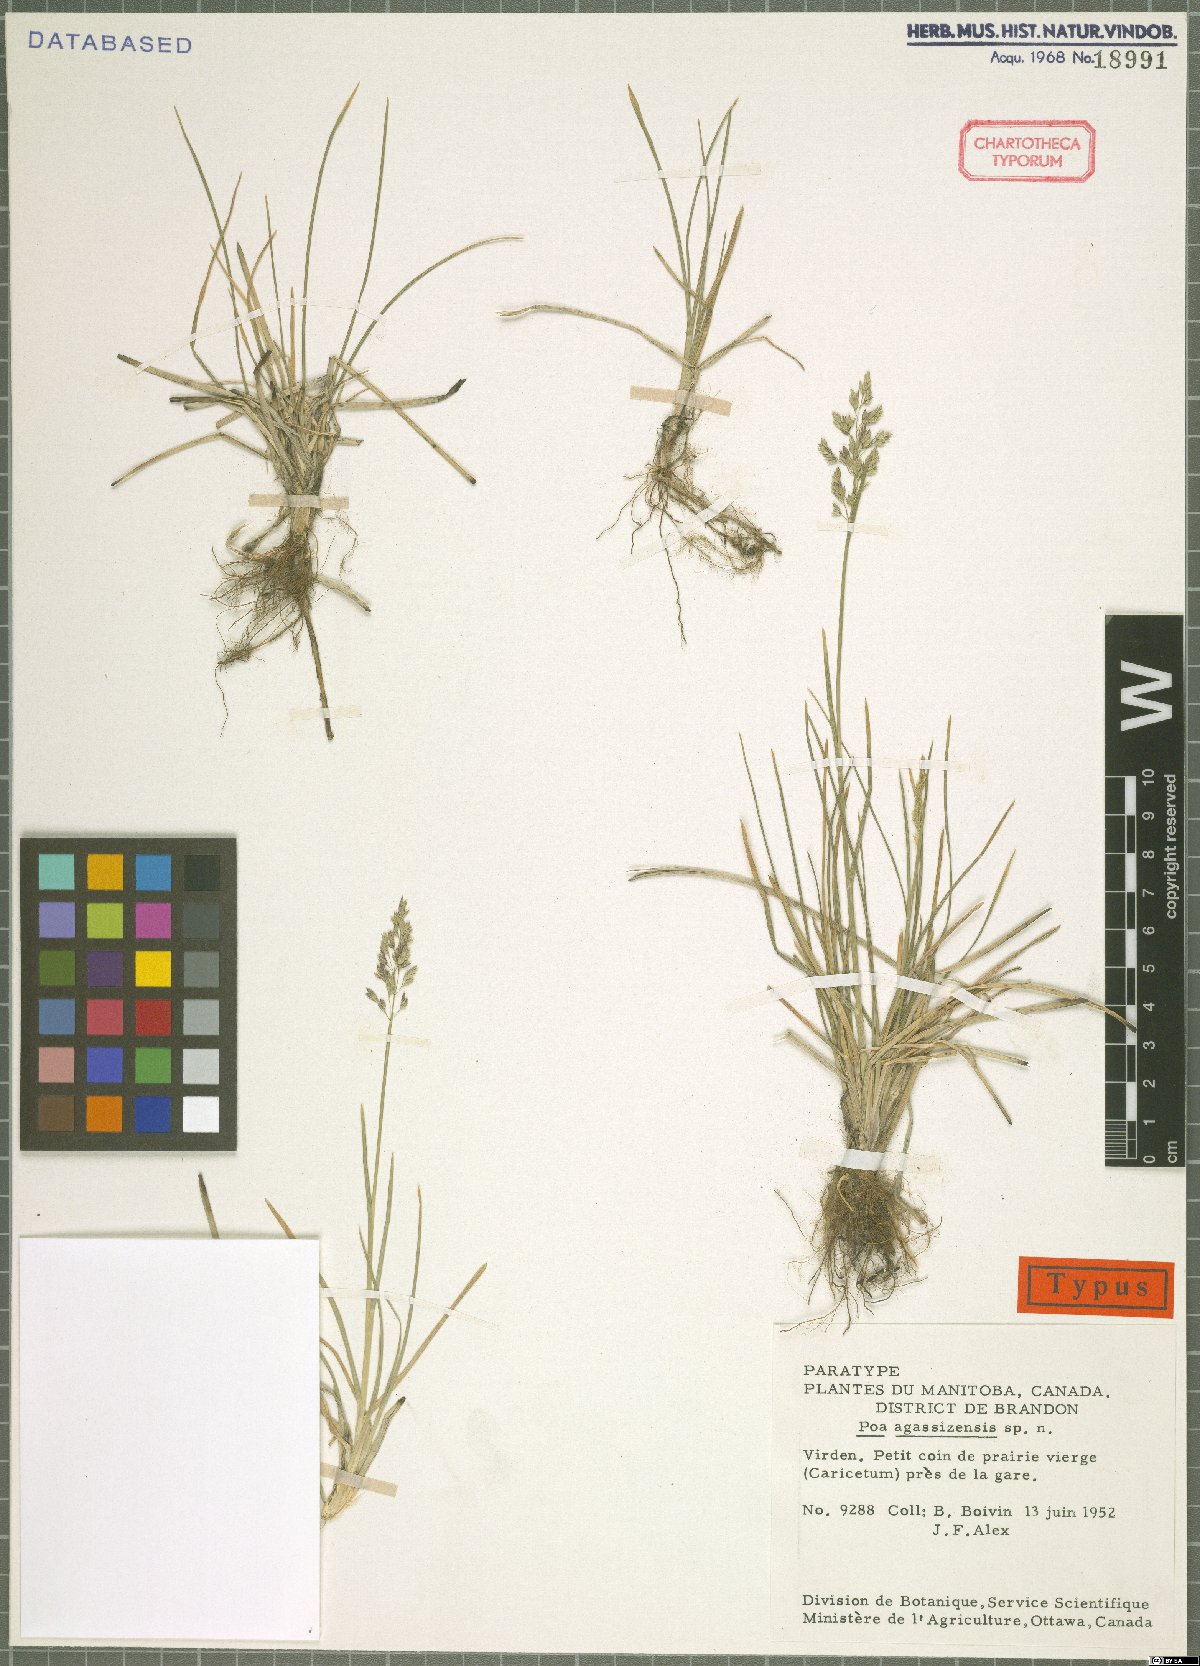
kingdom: Plantae
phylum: Tracheophyta
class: Liliopsida
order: Poales
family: Poaceae
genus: Poa
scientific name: Poa pratensis
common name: Kentucky bluegrass
